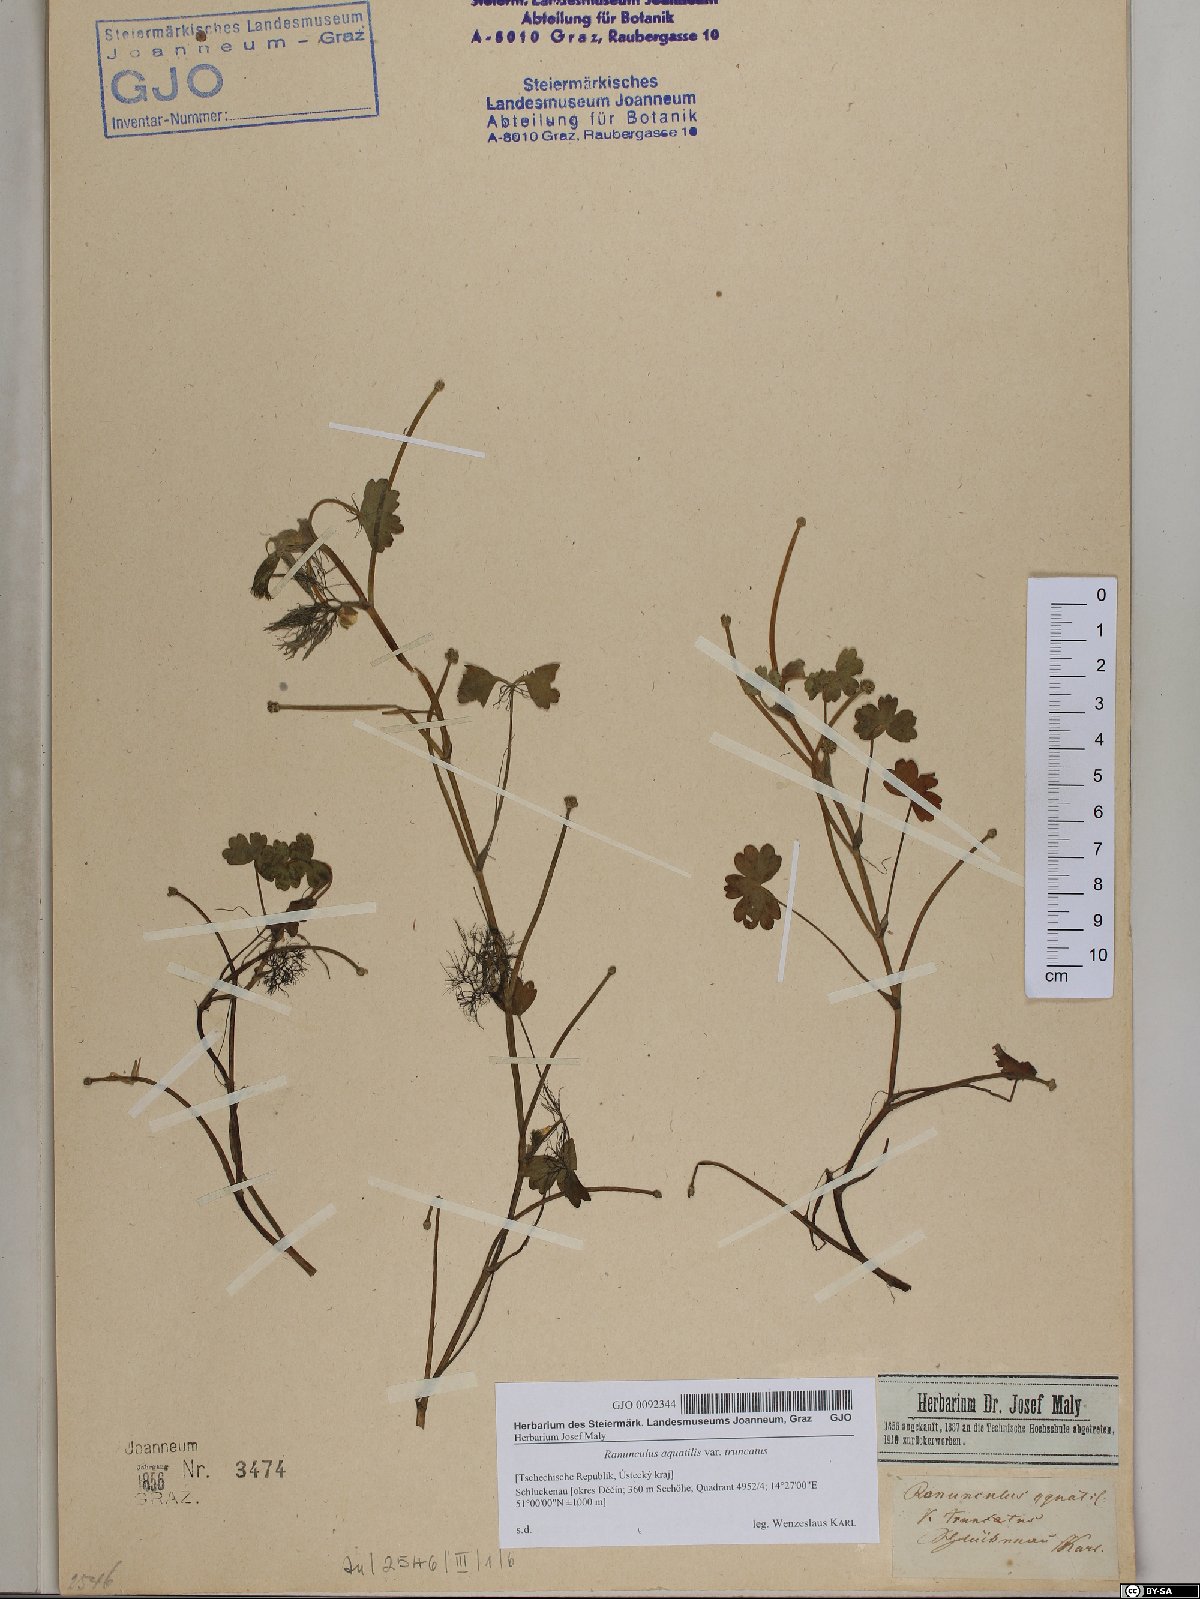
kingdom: Plantae
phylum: Tracheophyta
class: Magnoliopsida
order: Ranunculales
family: Ranunculaceae
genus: Ranunculus
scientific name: Ranunculus peltatus
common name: Pond water-crowfoot
